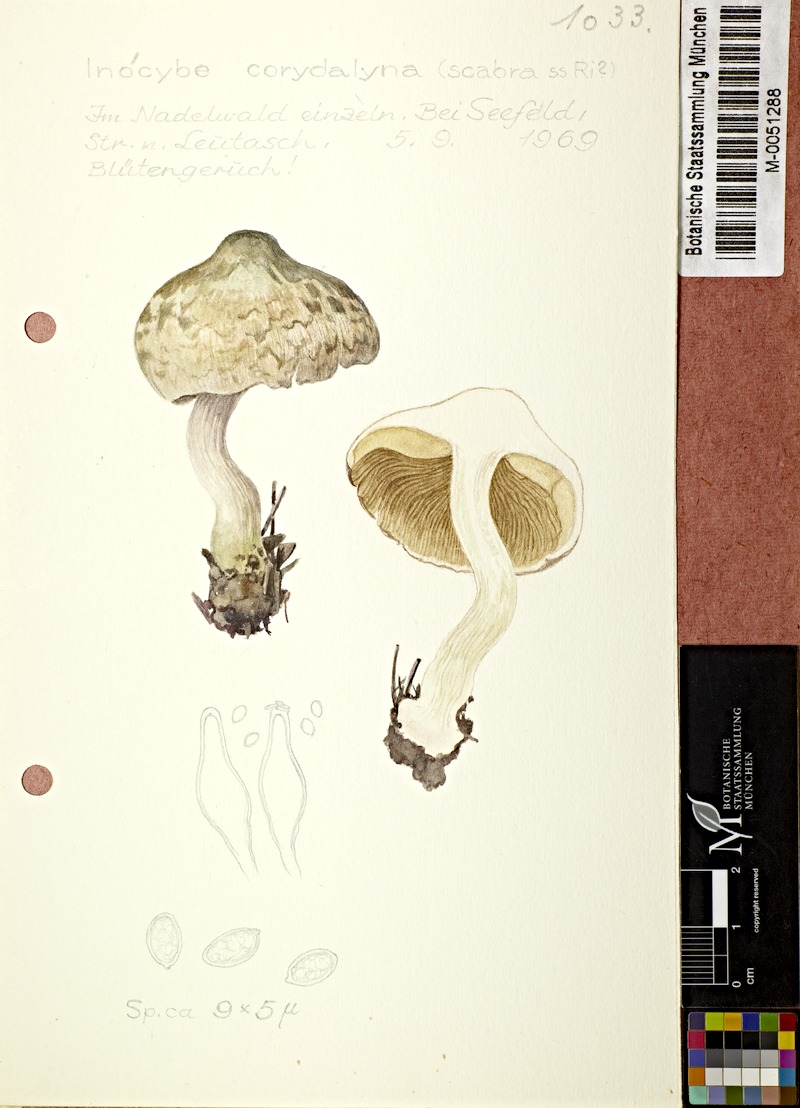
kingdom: Fungi
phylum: Basidiomycota
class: Agaricomycetes
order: Agaricales
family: Inocybaceae
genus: Inocybe
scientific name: Inocybe corydalina
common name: Greenflush fibrecap
